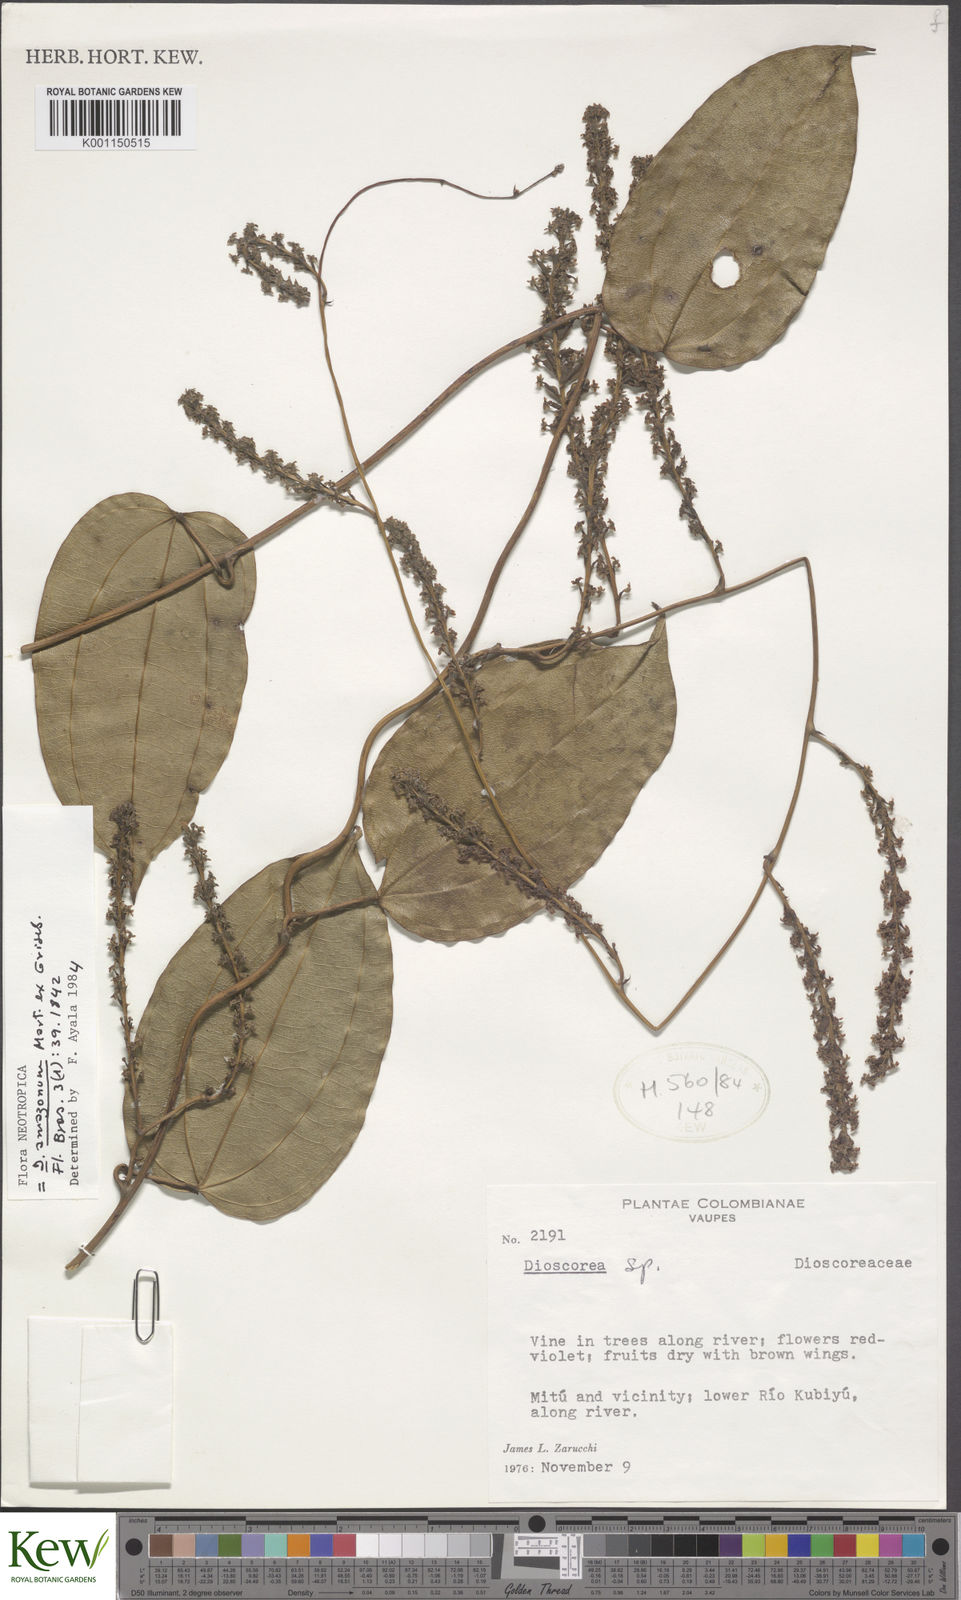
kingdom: Plantae
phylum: Tracheophyta
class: Liliopsida
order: Dioscoreales
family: Dioscoreaceae
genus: Dioscorea
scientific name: Dioscorea amazonum
